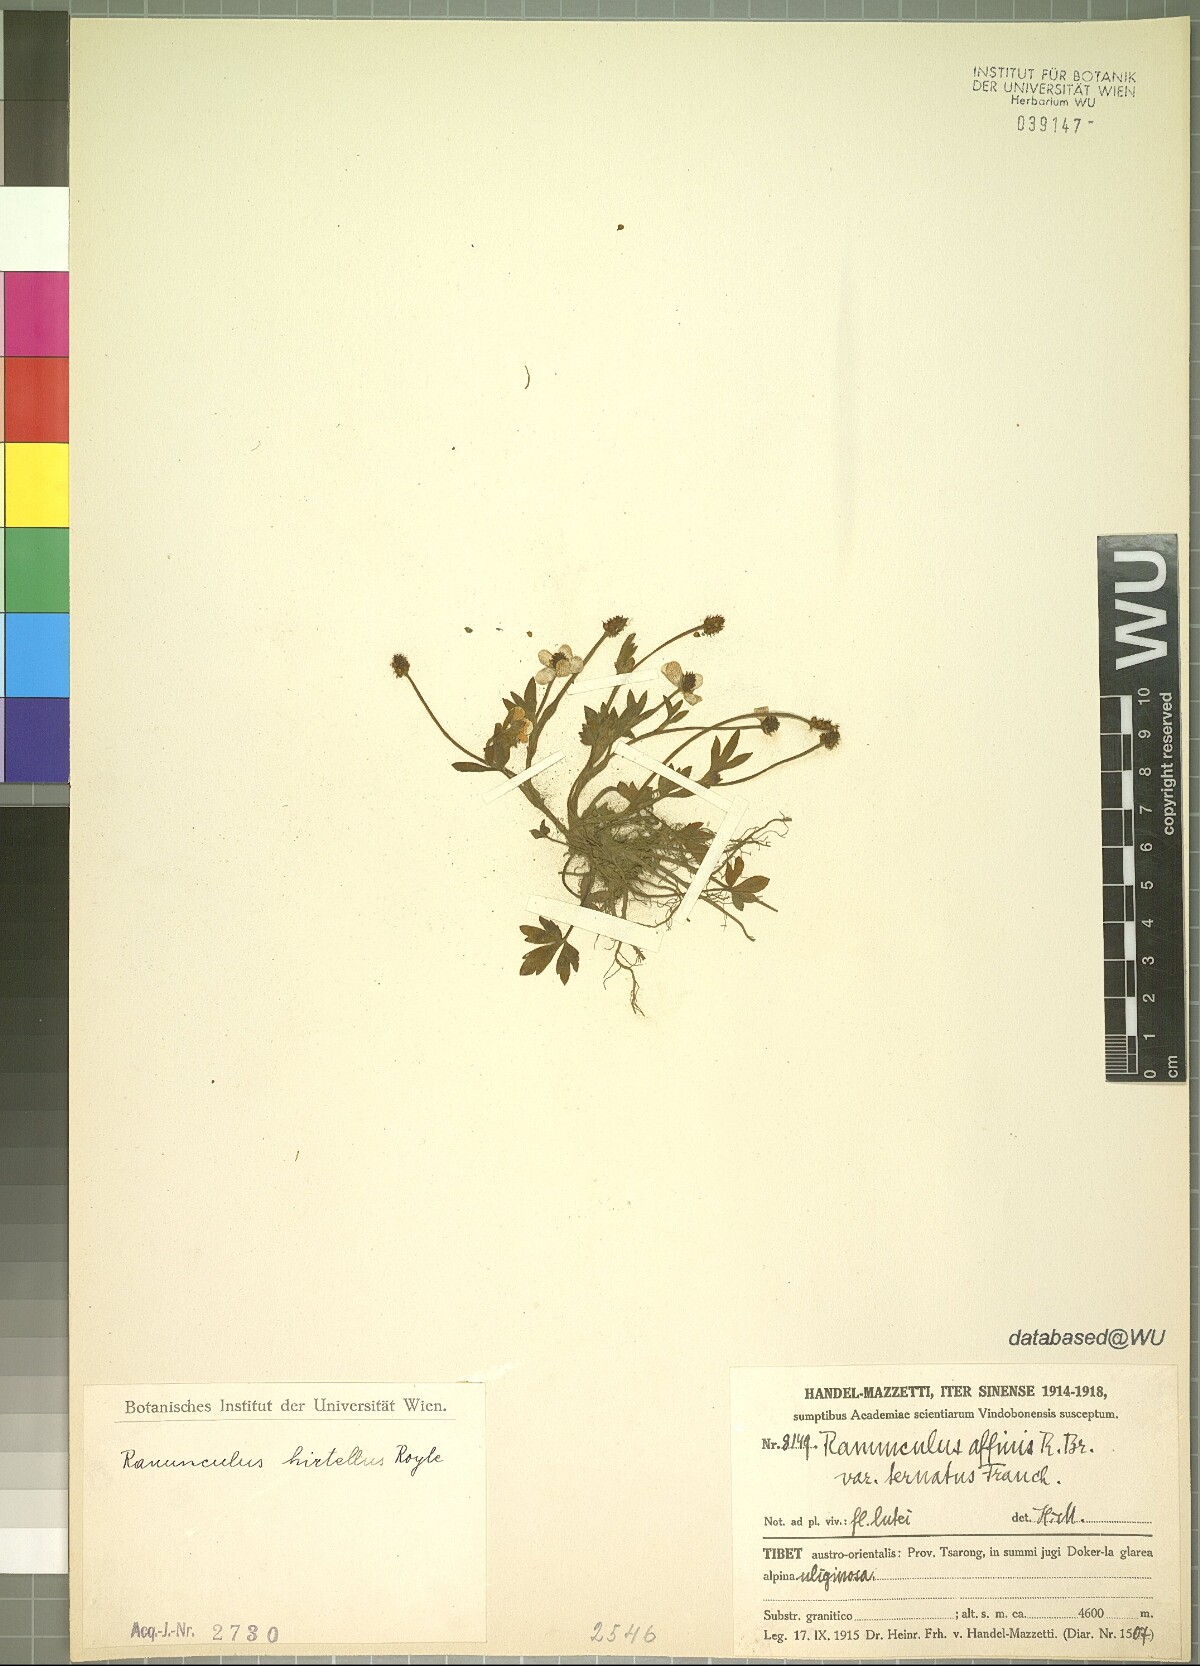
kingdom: Plantae
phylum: Tracheophyta
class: Magnoliopsida
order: Ranunculales
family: Ranunculaceae
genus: Ranunculus
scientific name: Ranunculus hirtellus
